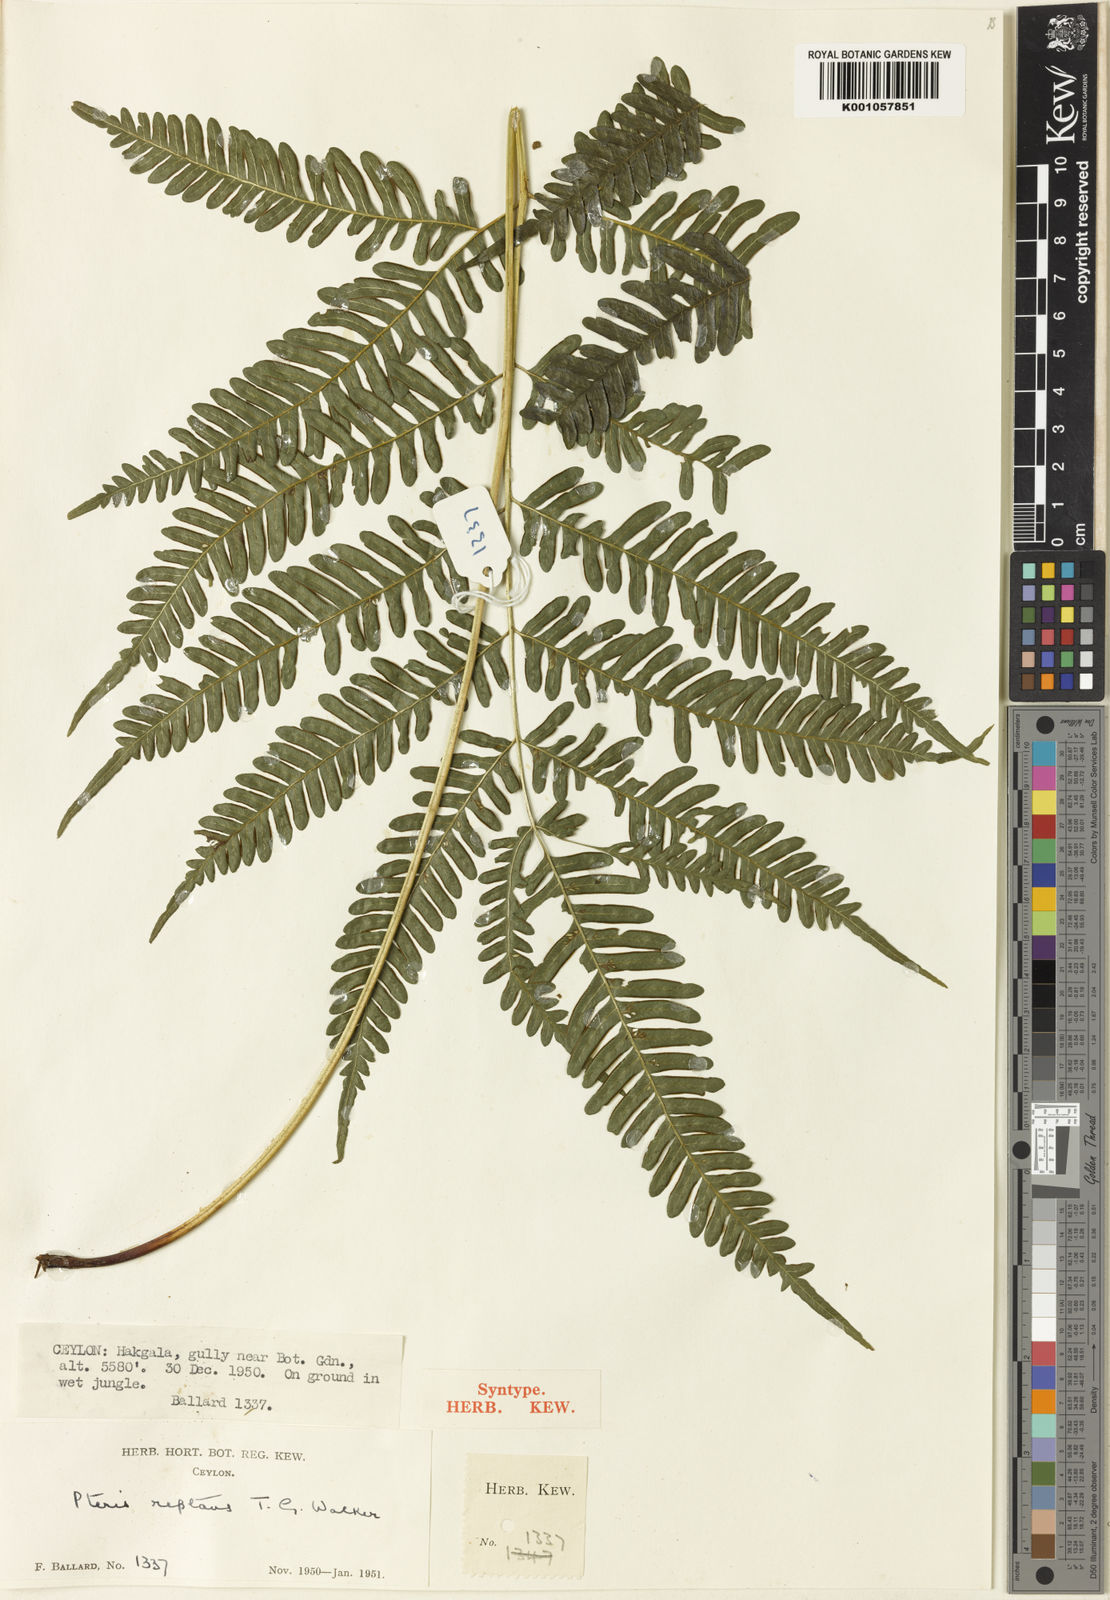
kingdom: Plantae
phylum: Tracheophyta
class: Polypodiopsida
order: Polypodiales
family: Pteridaceae
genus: Pteris
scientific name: Pteris reptans
